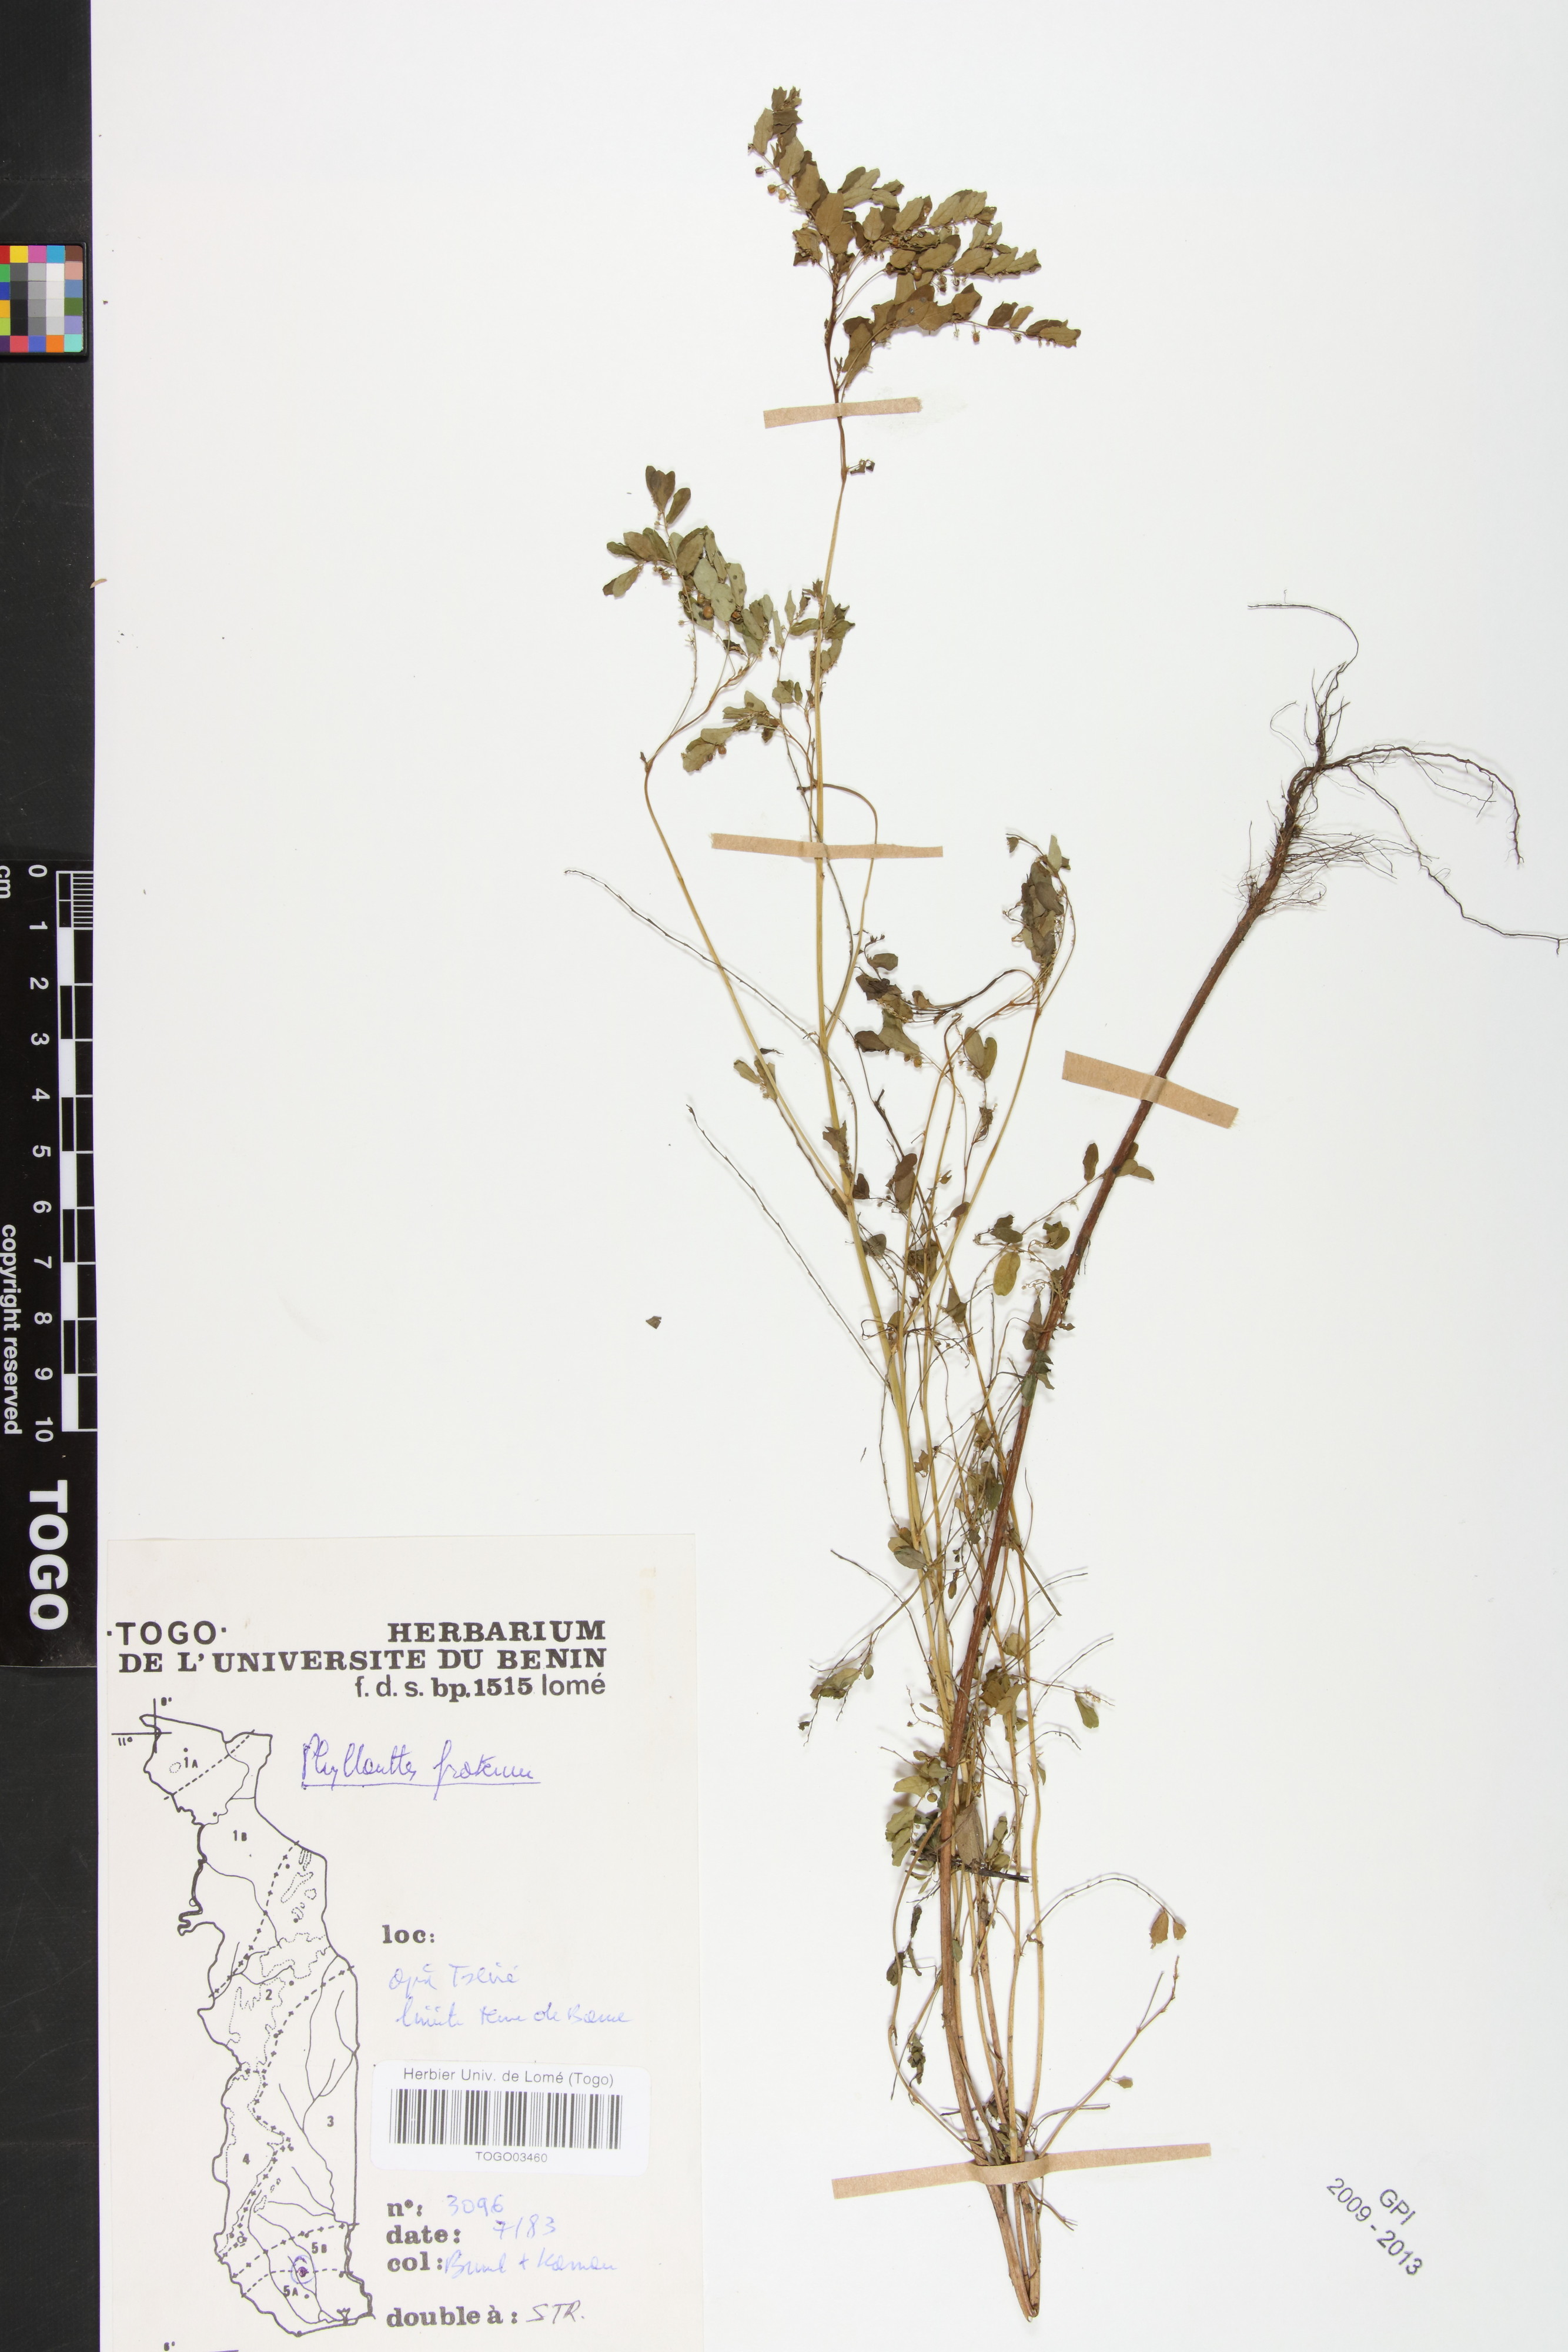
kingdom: Plantae
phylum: Tracheophyta
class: Magnoliopsida
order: Malpighiales
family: Phyllanthaceae
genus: Phyllanthus
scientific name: Phyllanthus fraternus
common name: Gulf leaf-flower
